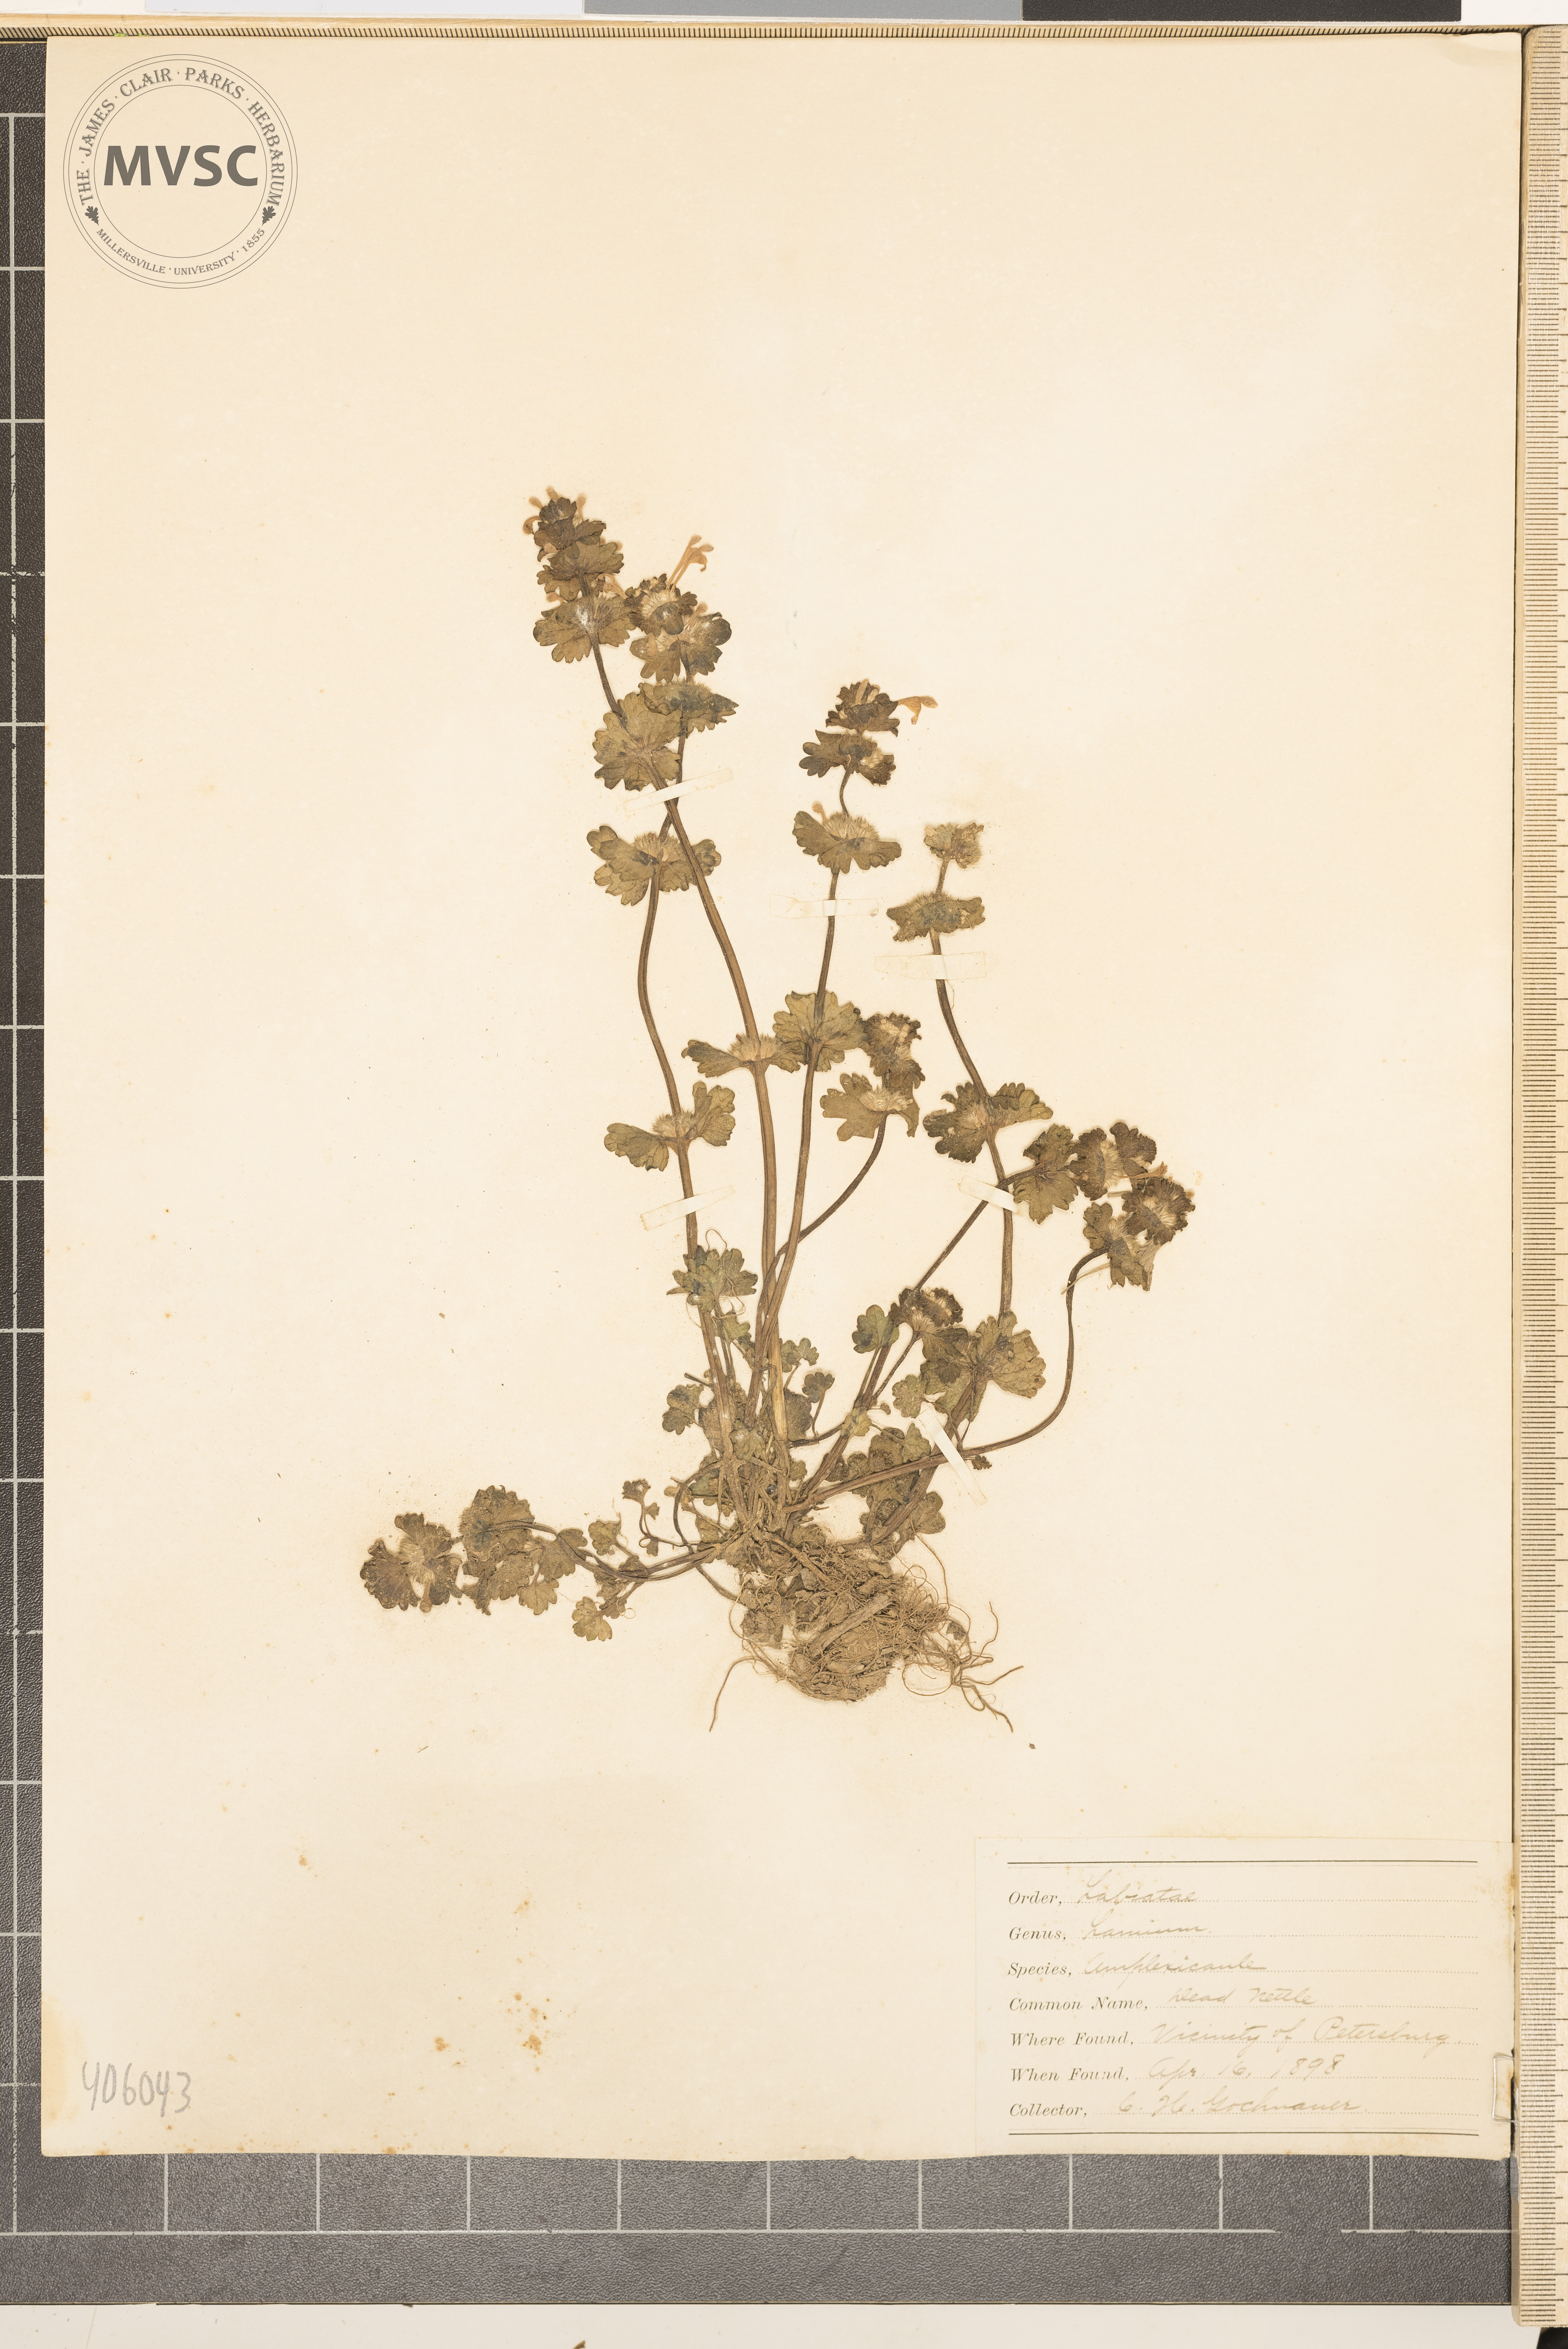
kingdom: Plantae
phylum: Tracheophyta
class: Magnoliopsida
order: Lamiales
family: Lamiaceae
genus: Lamium
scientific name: Lamium amplexicaule
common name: henbit
